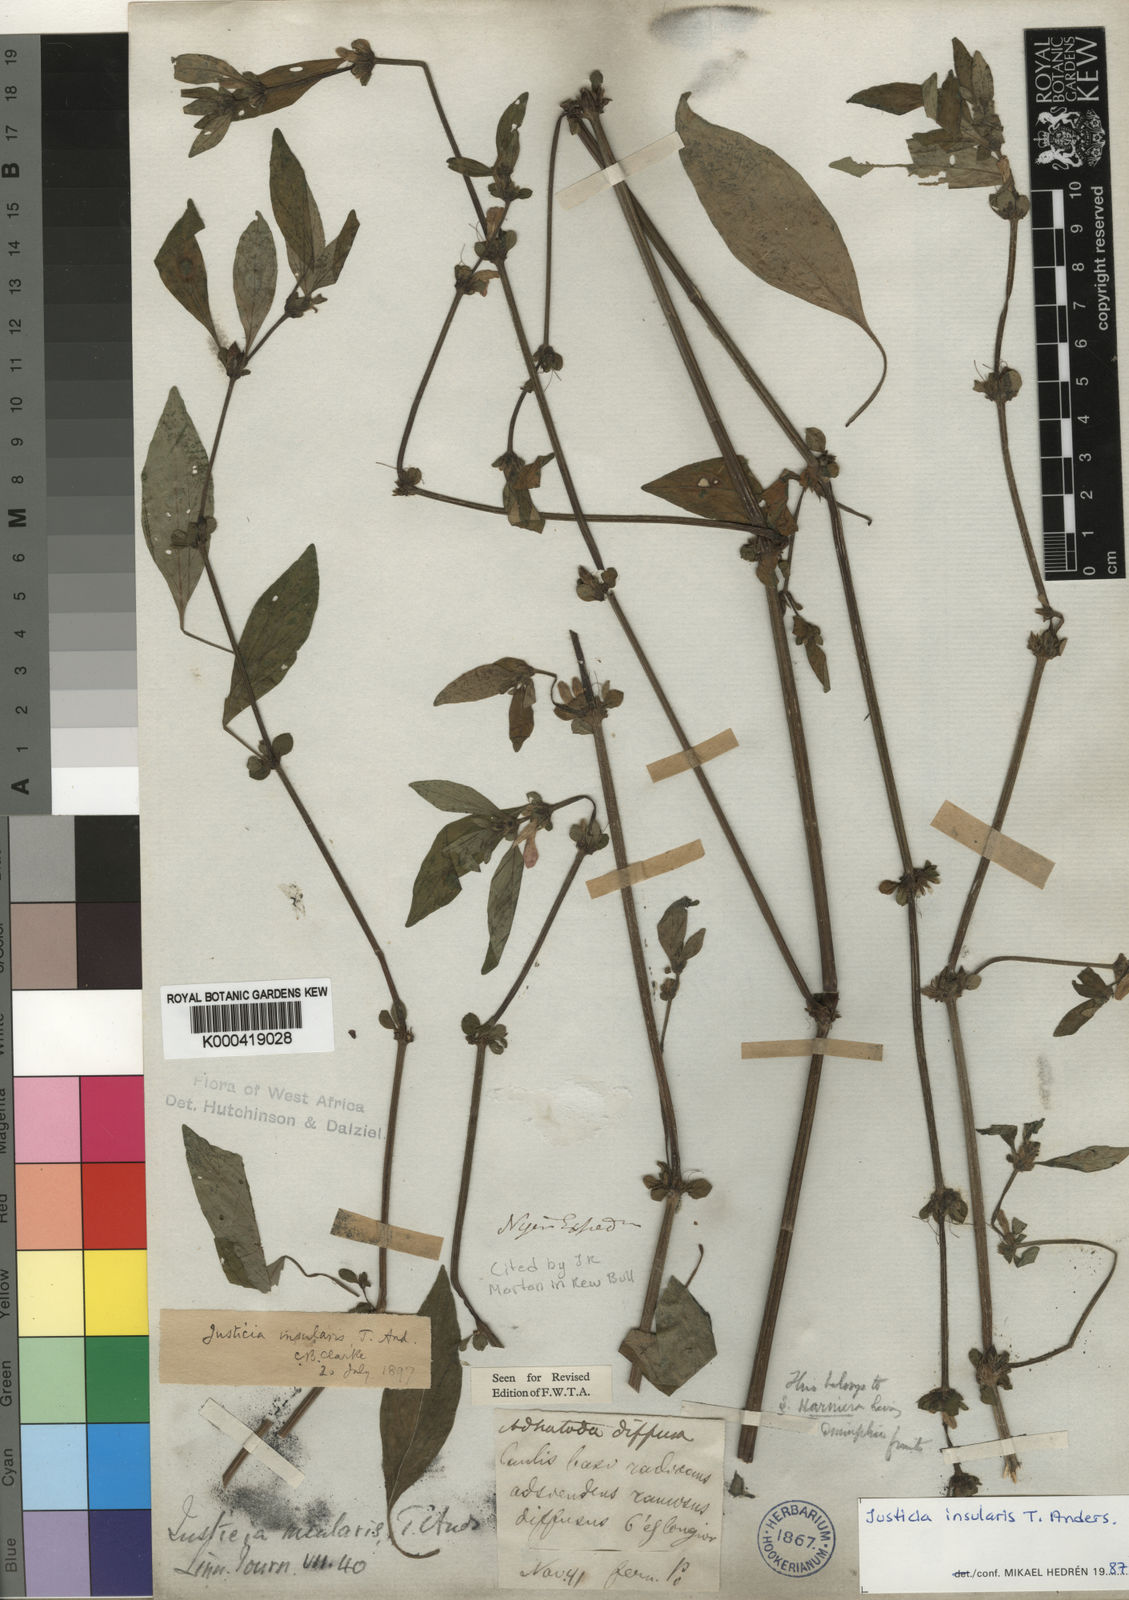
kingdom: Plantae
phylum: Tracheophyta
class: Magnoliopsida
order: Lamiales
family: Acanthaceae
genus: Justicia
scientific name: Justicia insularis
